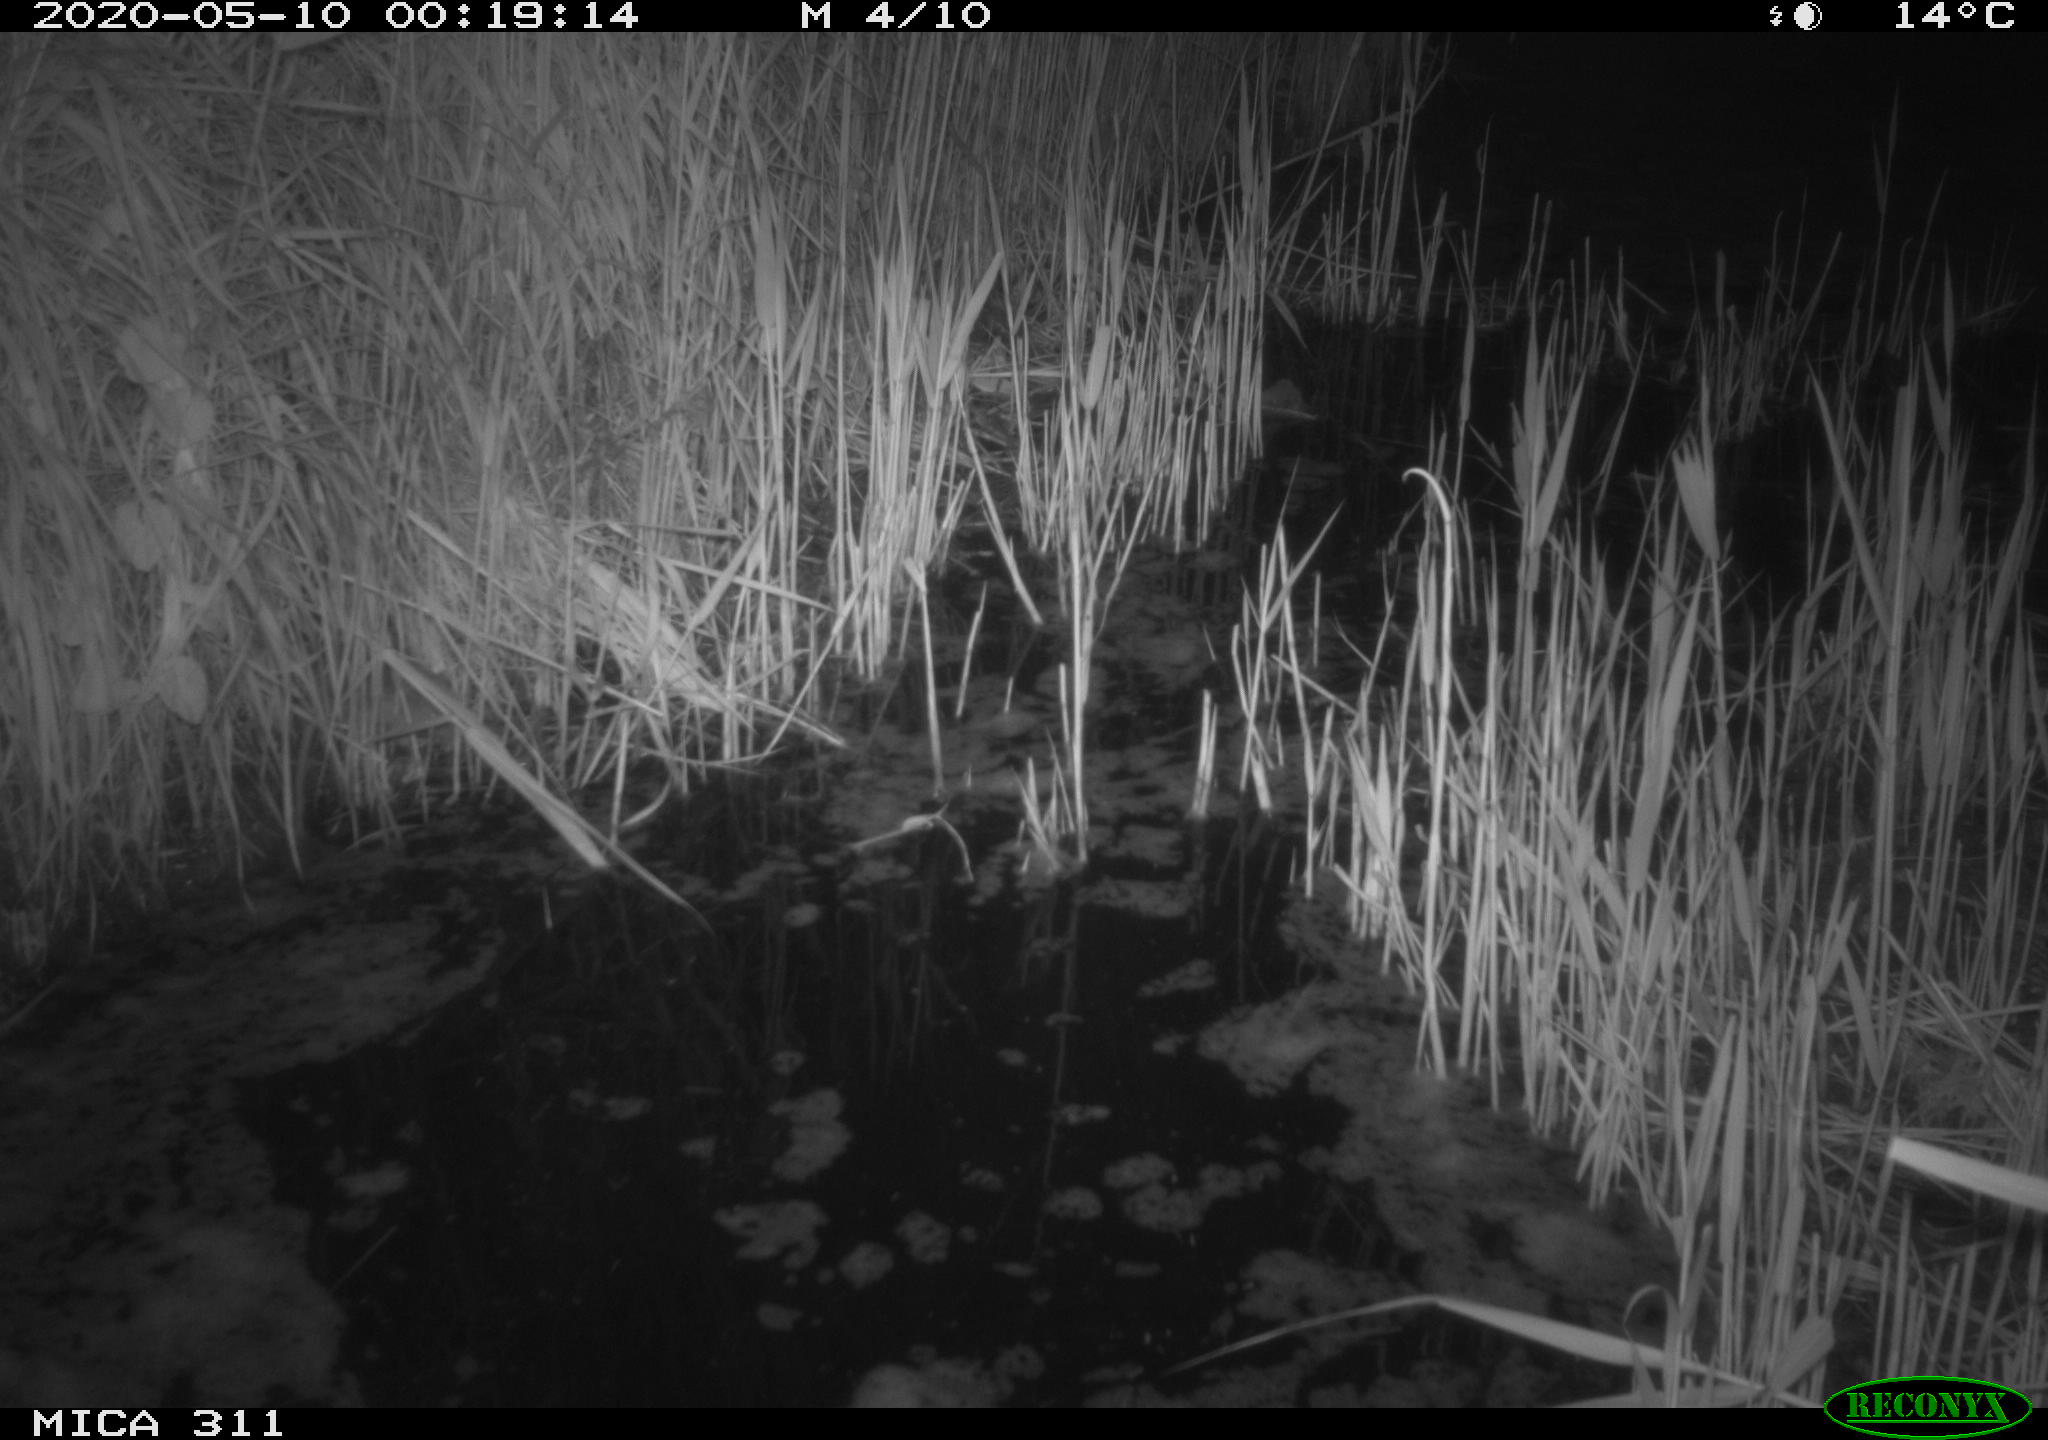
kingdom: Animalia
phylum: Chordata
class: Mammalia
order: Rodentia
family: Muridae
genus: Rattus
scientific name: Rattus norvegicus
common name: Brown rat
